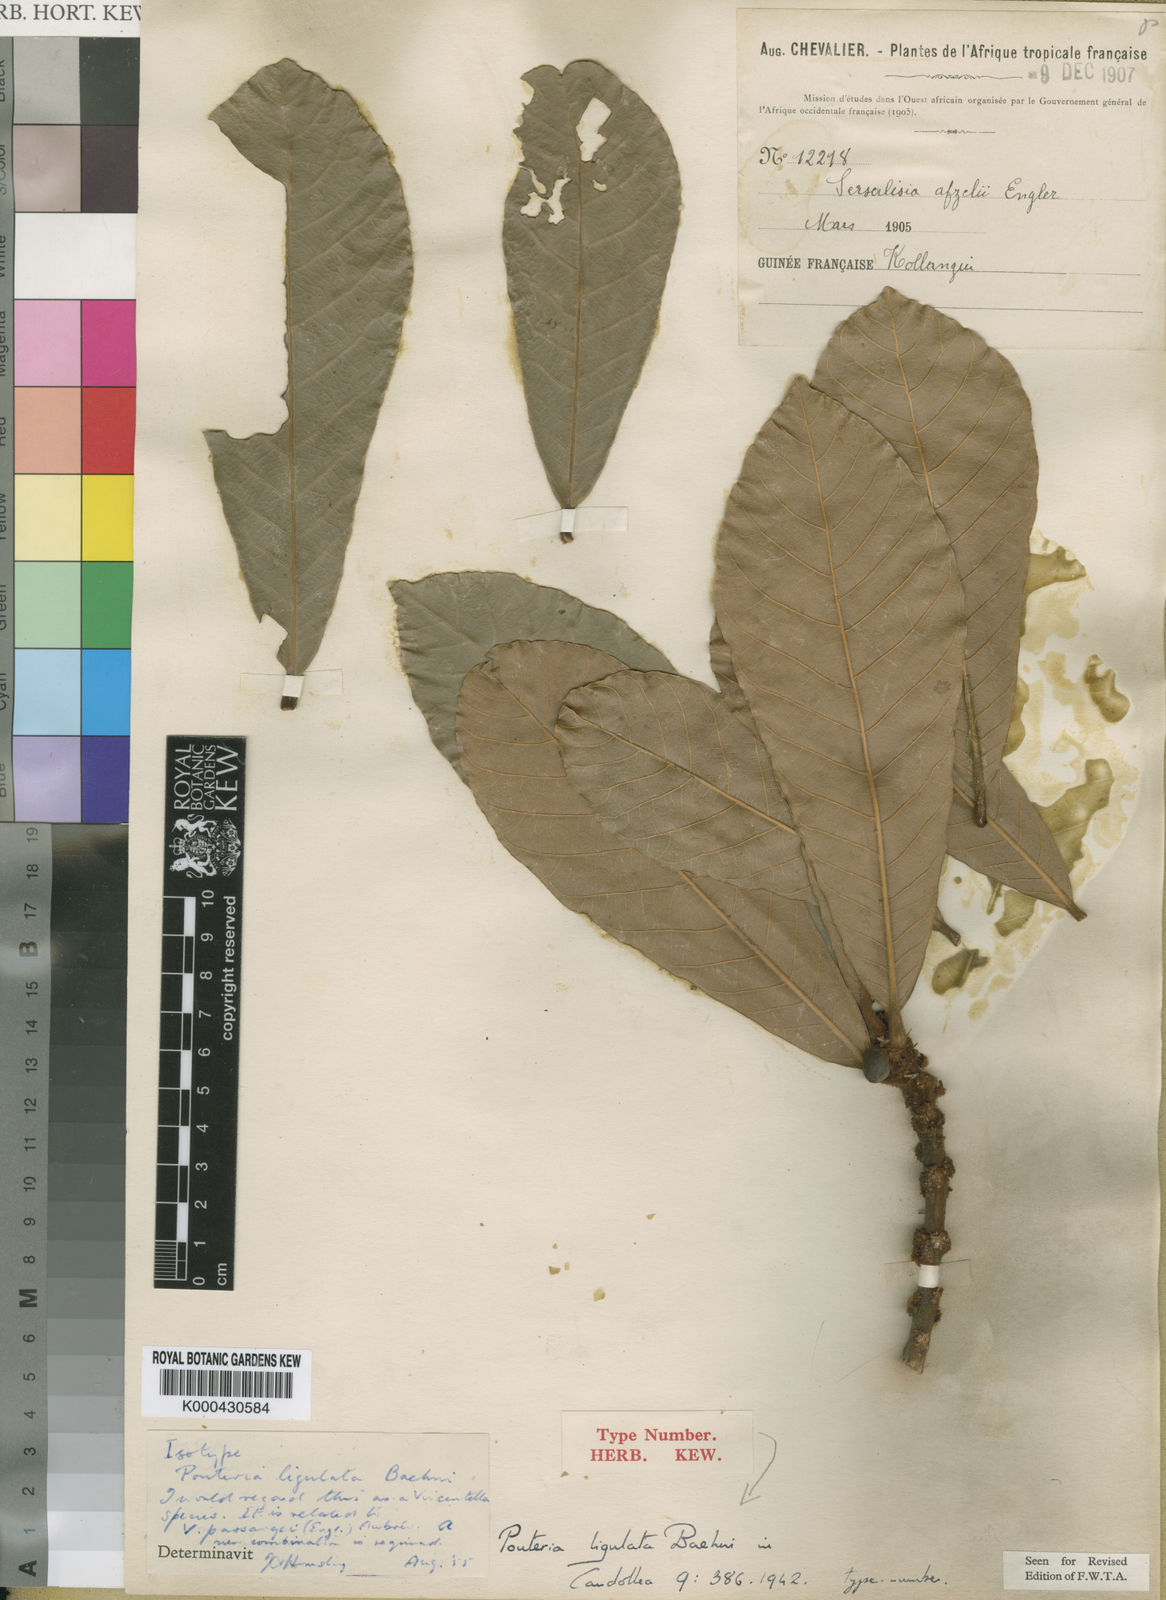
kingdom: Plantae
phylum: Tracheophyta
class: Magnoliopsida
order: Ericales
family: Sapotaceae
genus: Synsepalum
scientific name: Synsepalum passargei
